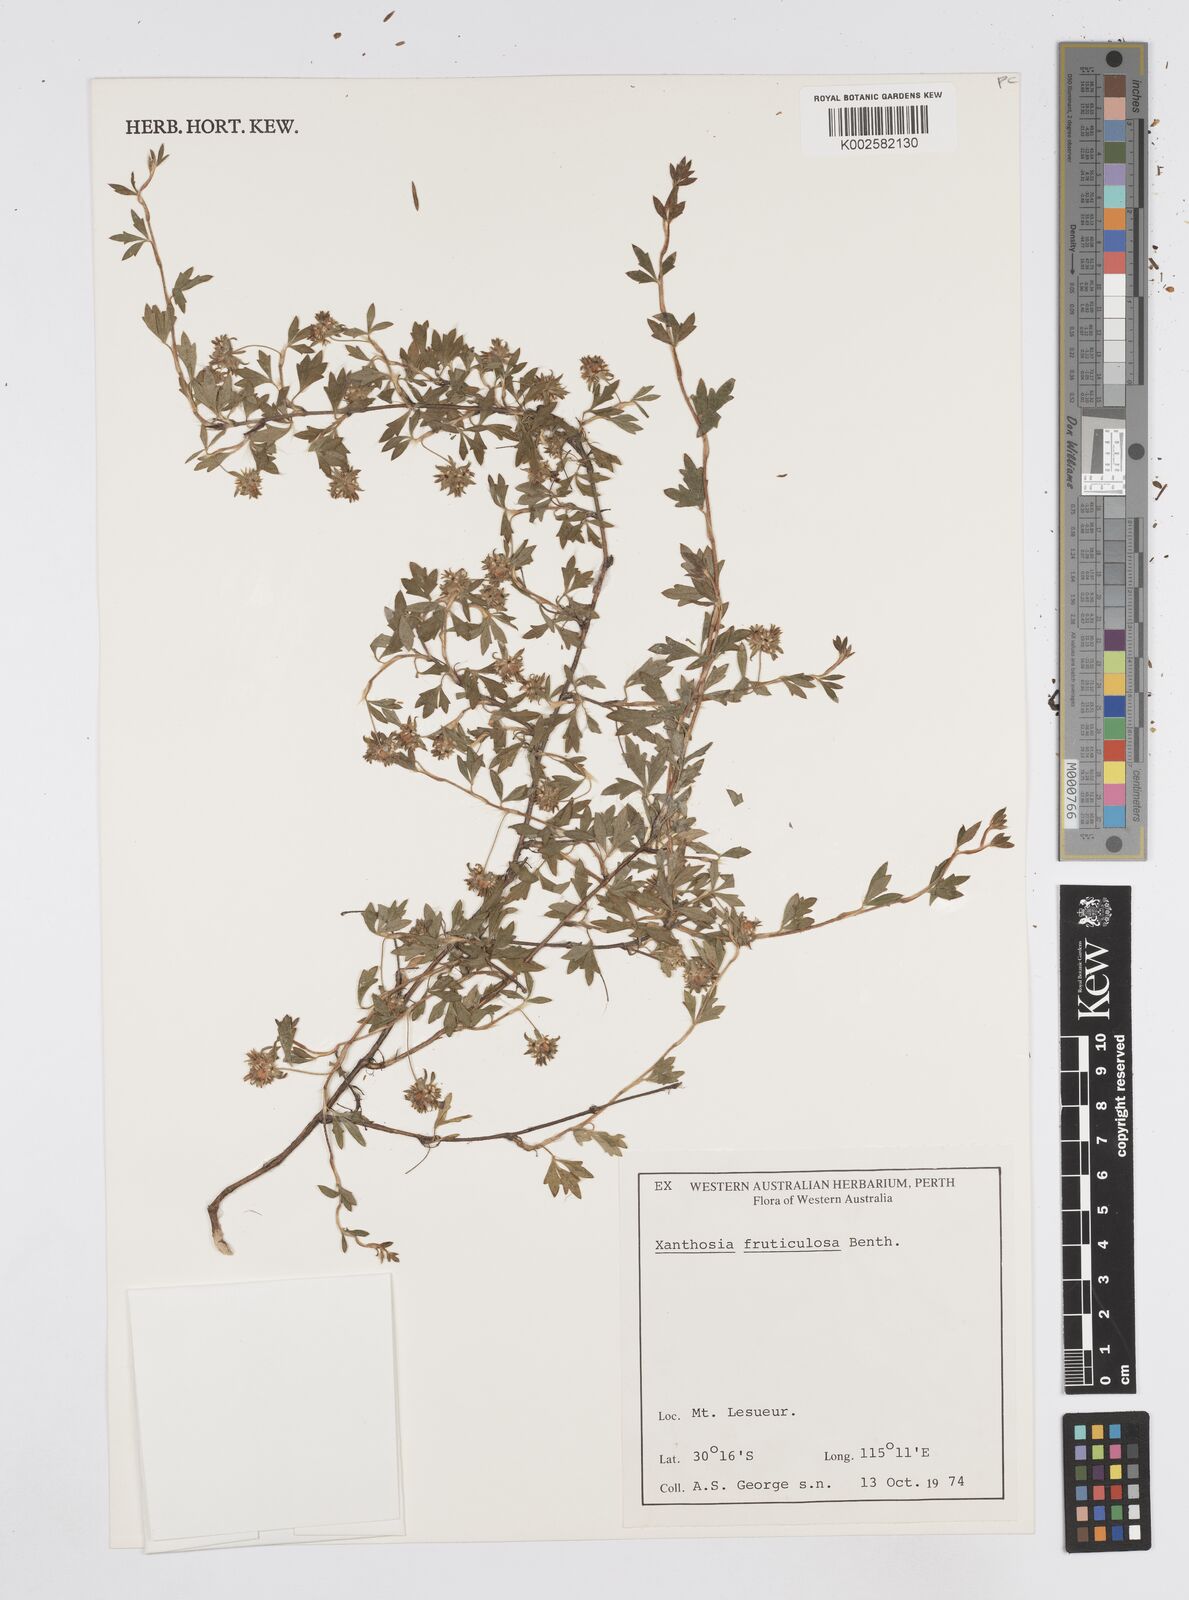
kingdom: Plantae
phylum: Tracheophyta
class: Magnoliopsida
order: Apiales
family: Apiaceae
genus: Xanthosia
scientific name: Xanthosia fruticulosa
